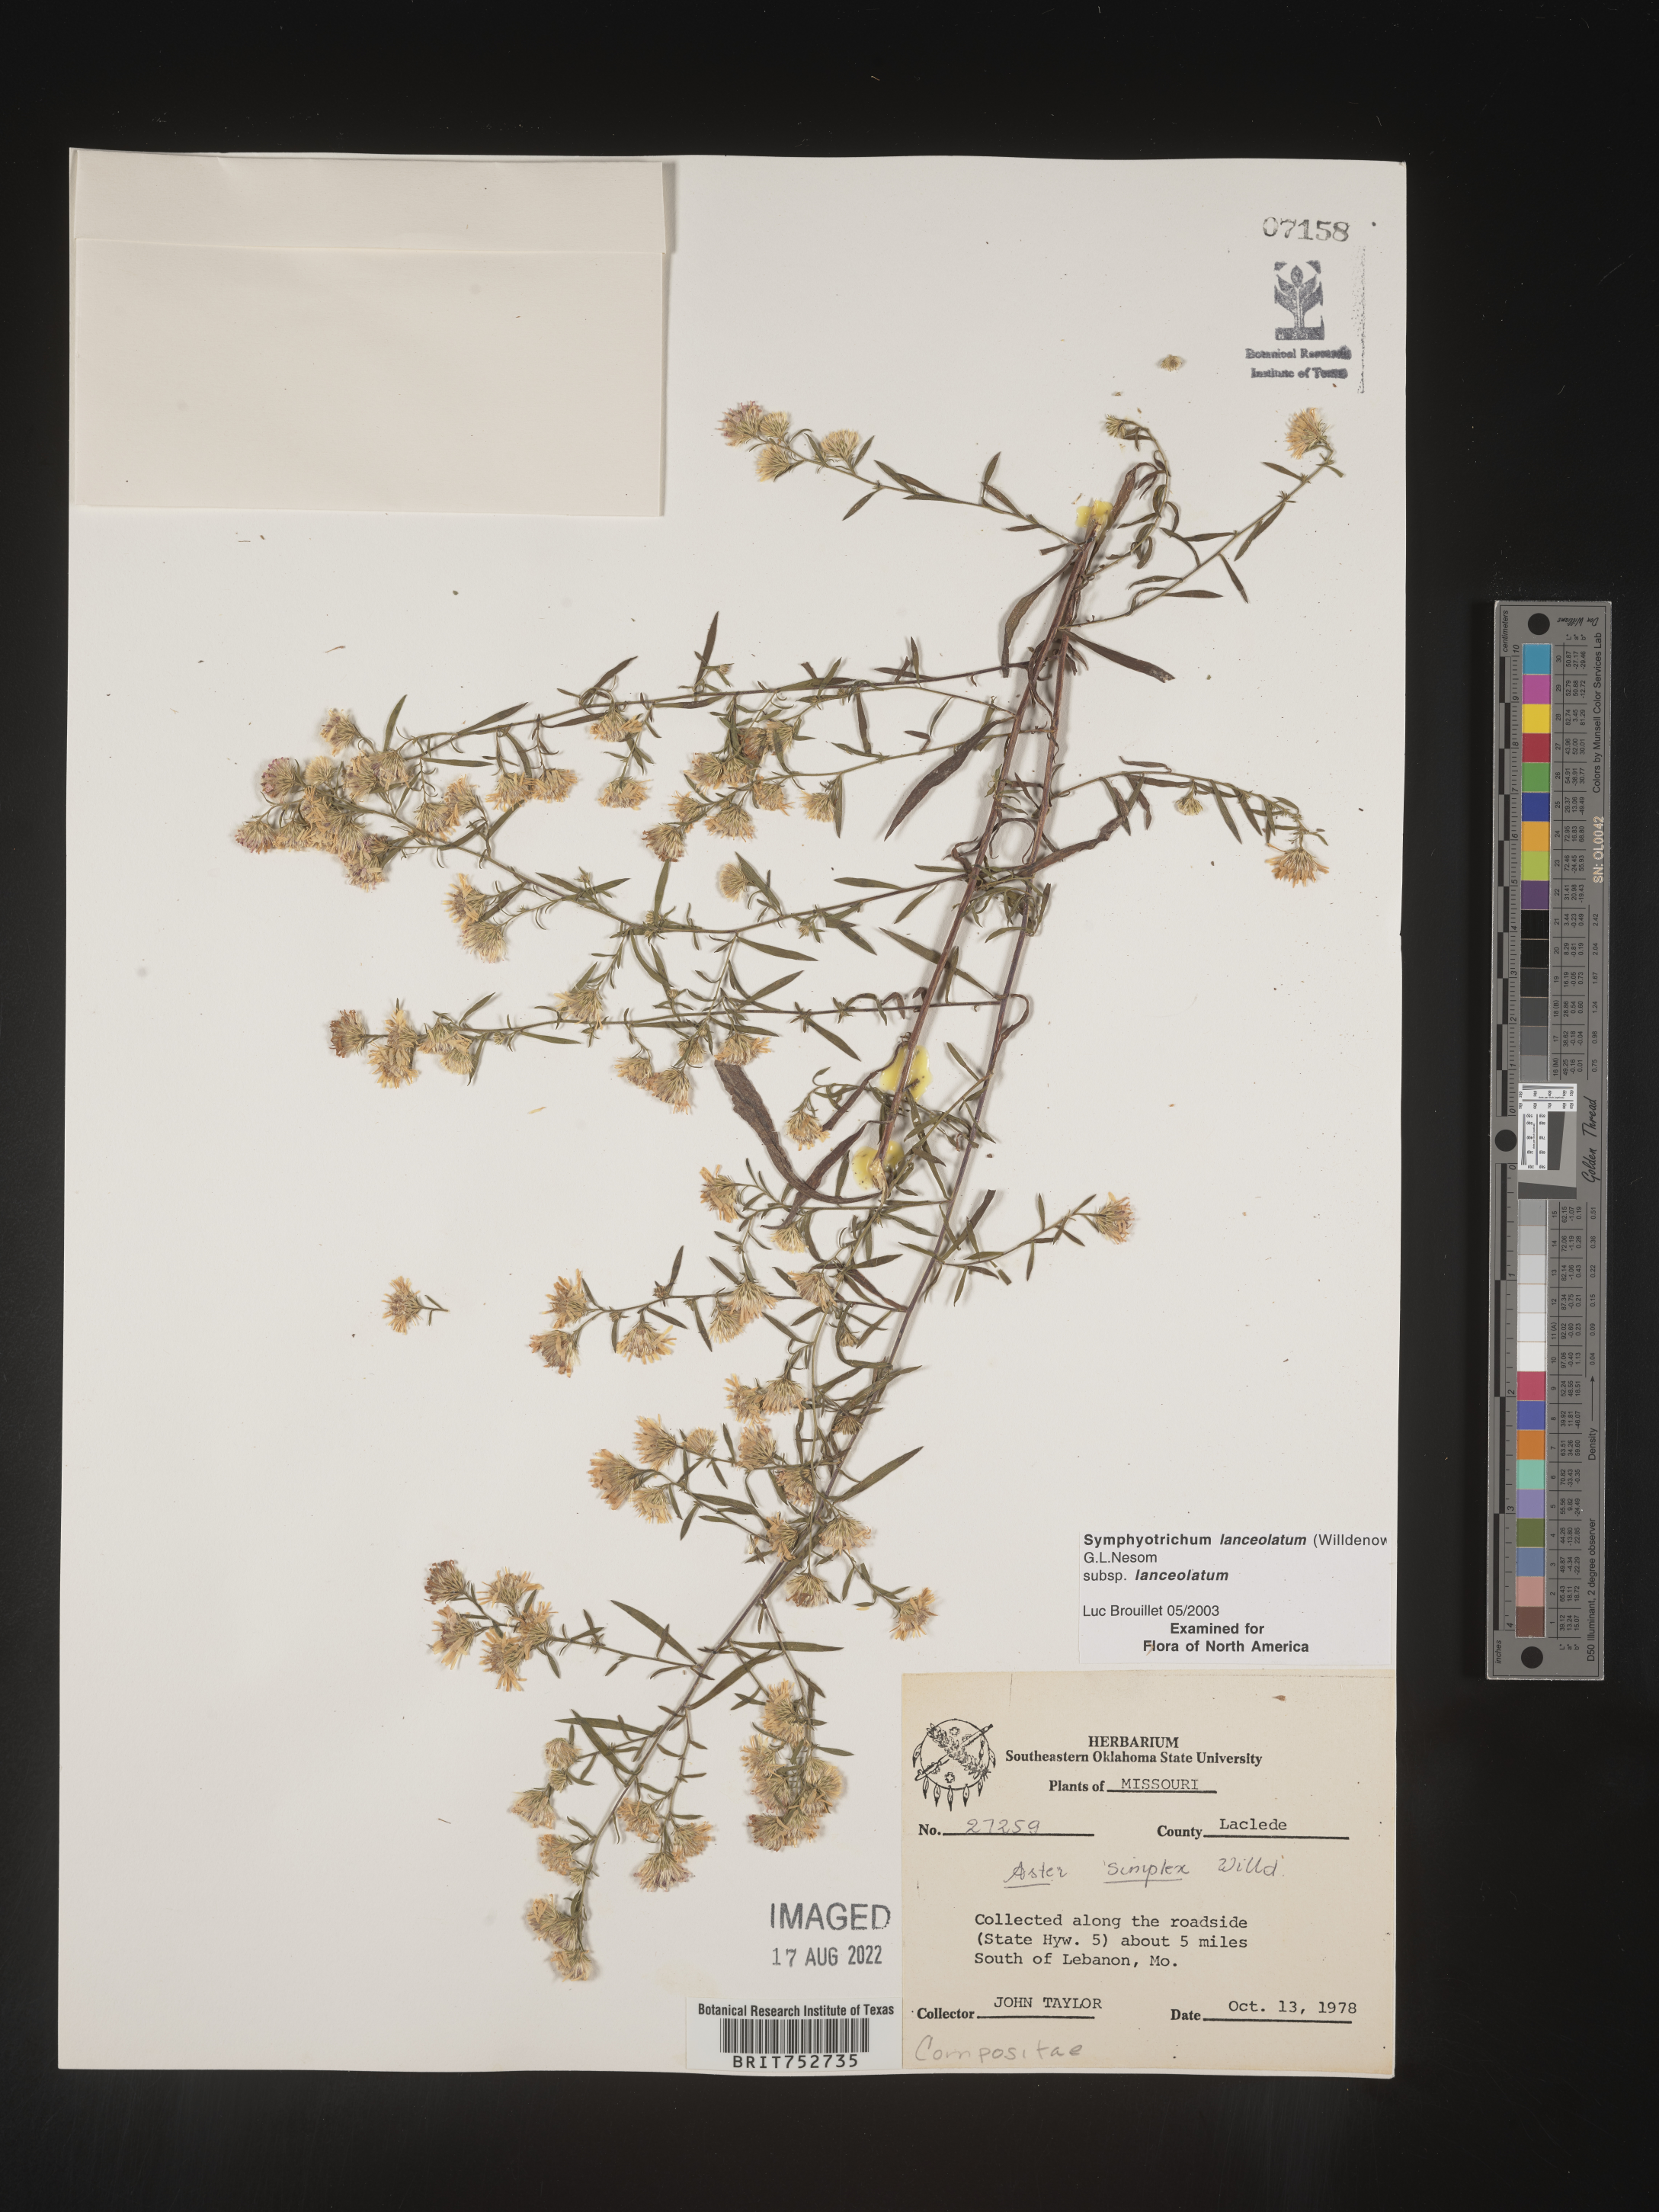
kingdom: Plantae
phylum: Tracheophyta
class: Magnoliopsida
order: Asterales
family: Asteraceae
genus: Symphyotrichum
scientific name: Symphyotrichum lanceolatum
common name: Panicled aster
